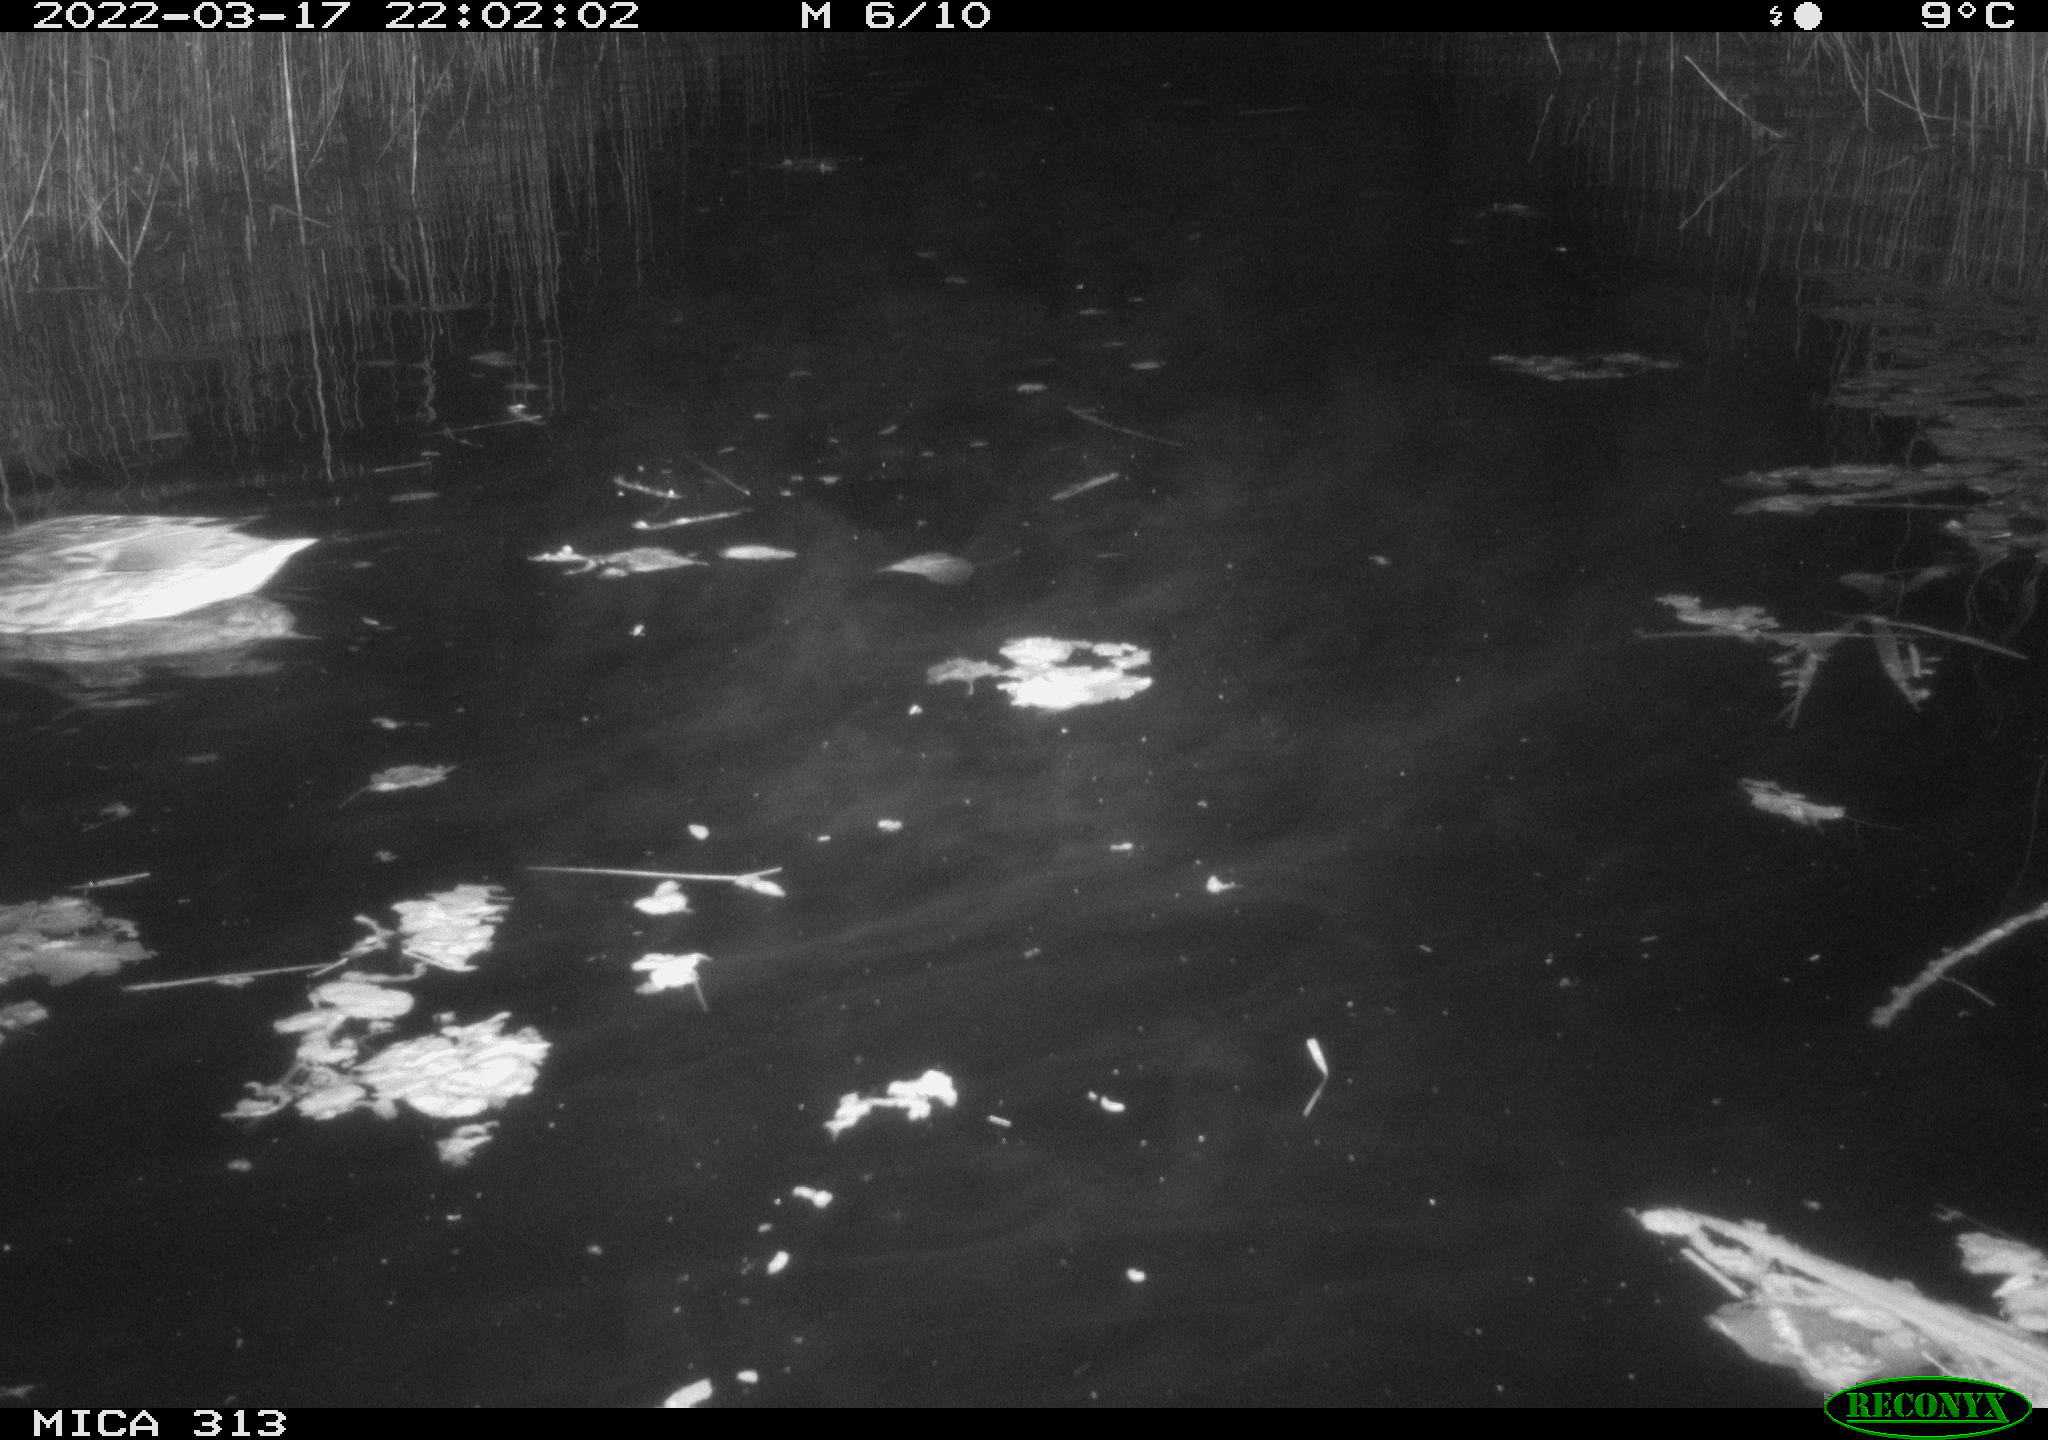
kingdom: Animalia
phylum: Chordata
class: Aves
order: Anseriformes
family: Anatidae
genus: Mareca
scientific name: Mareca strepera
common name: Gadwall
